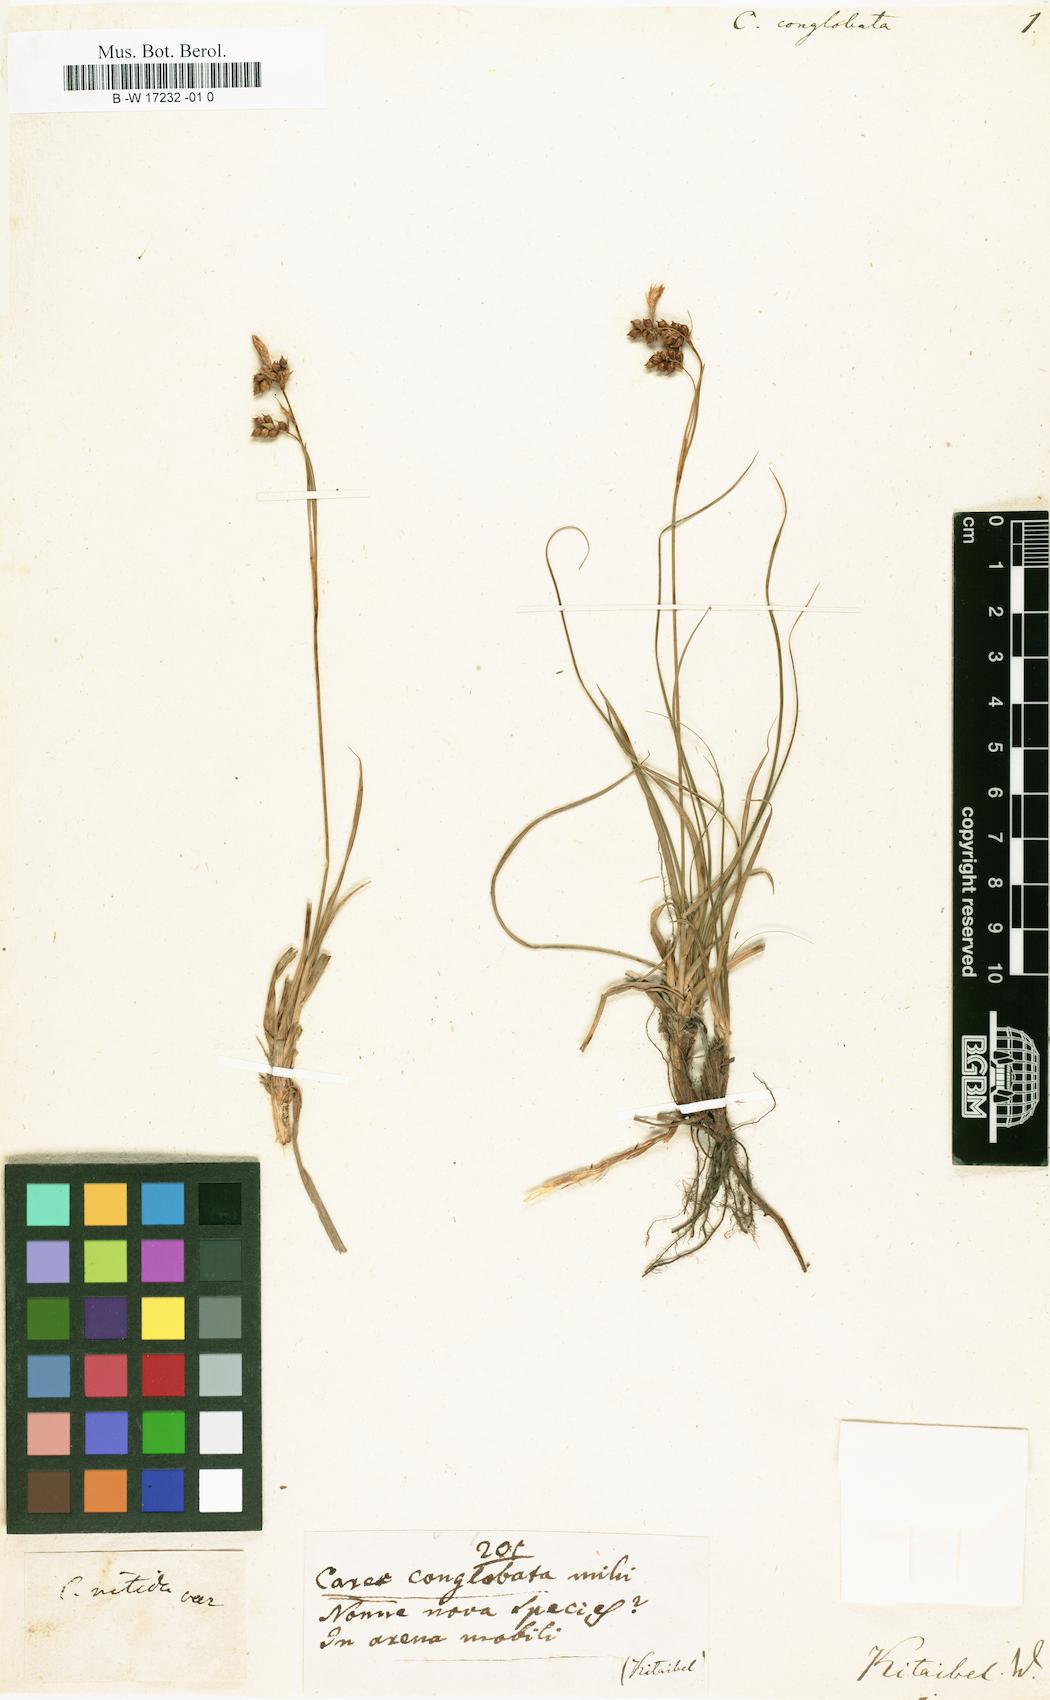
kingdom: Plantae
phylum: Tracheophyta
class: Liliopsida
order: Poales
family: Cyperaceae
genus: Carex
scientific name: Carex montana
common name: Soft-leaved sedge
